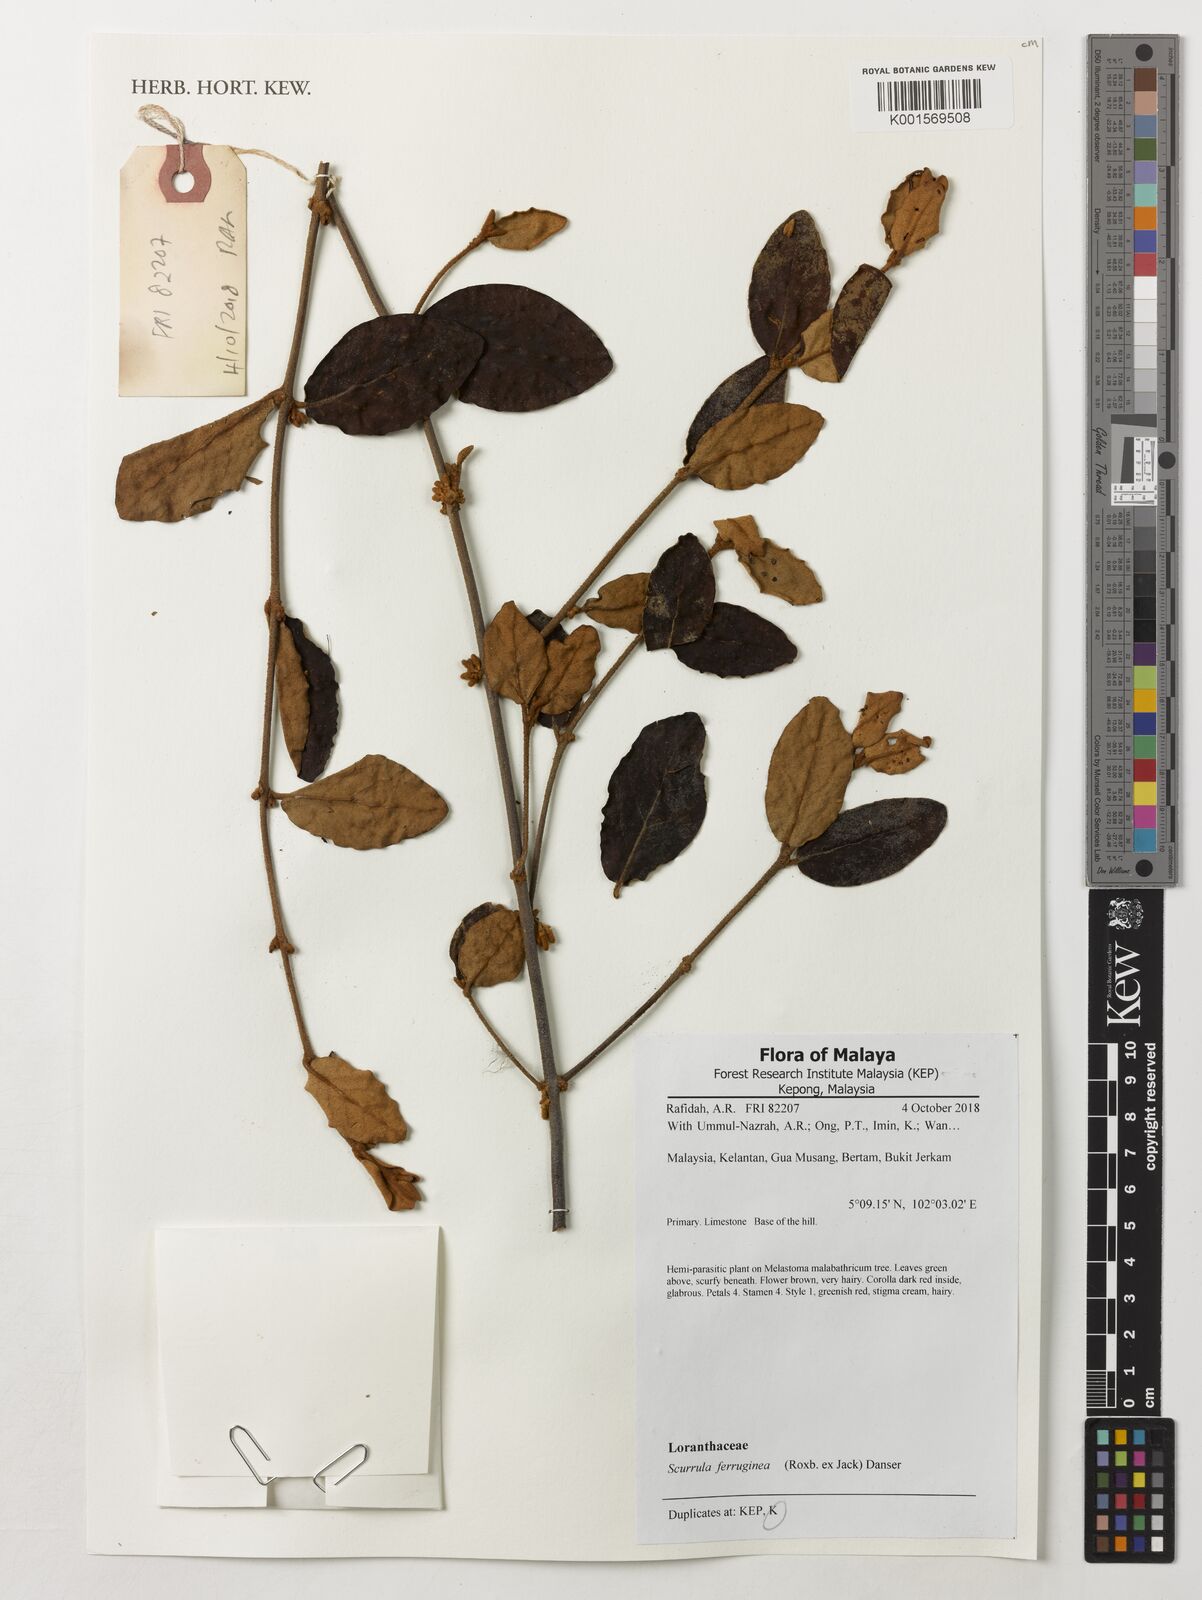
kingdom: Plantae
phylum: Tracheophyta
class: Magnoliopsida
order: Santalales
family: Loranthaceae
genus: Scurrula
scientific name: Scurrula ferruginea
